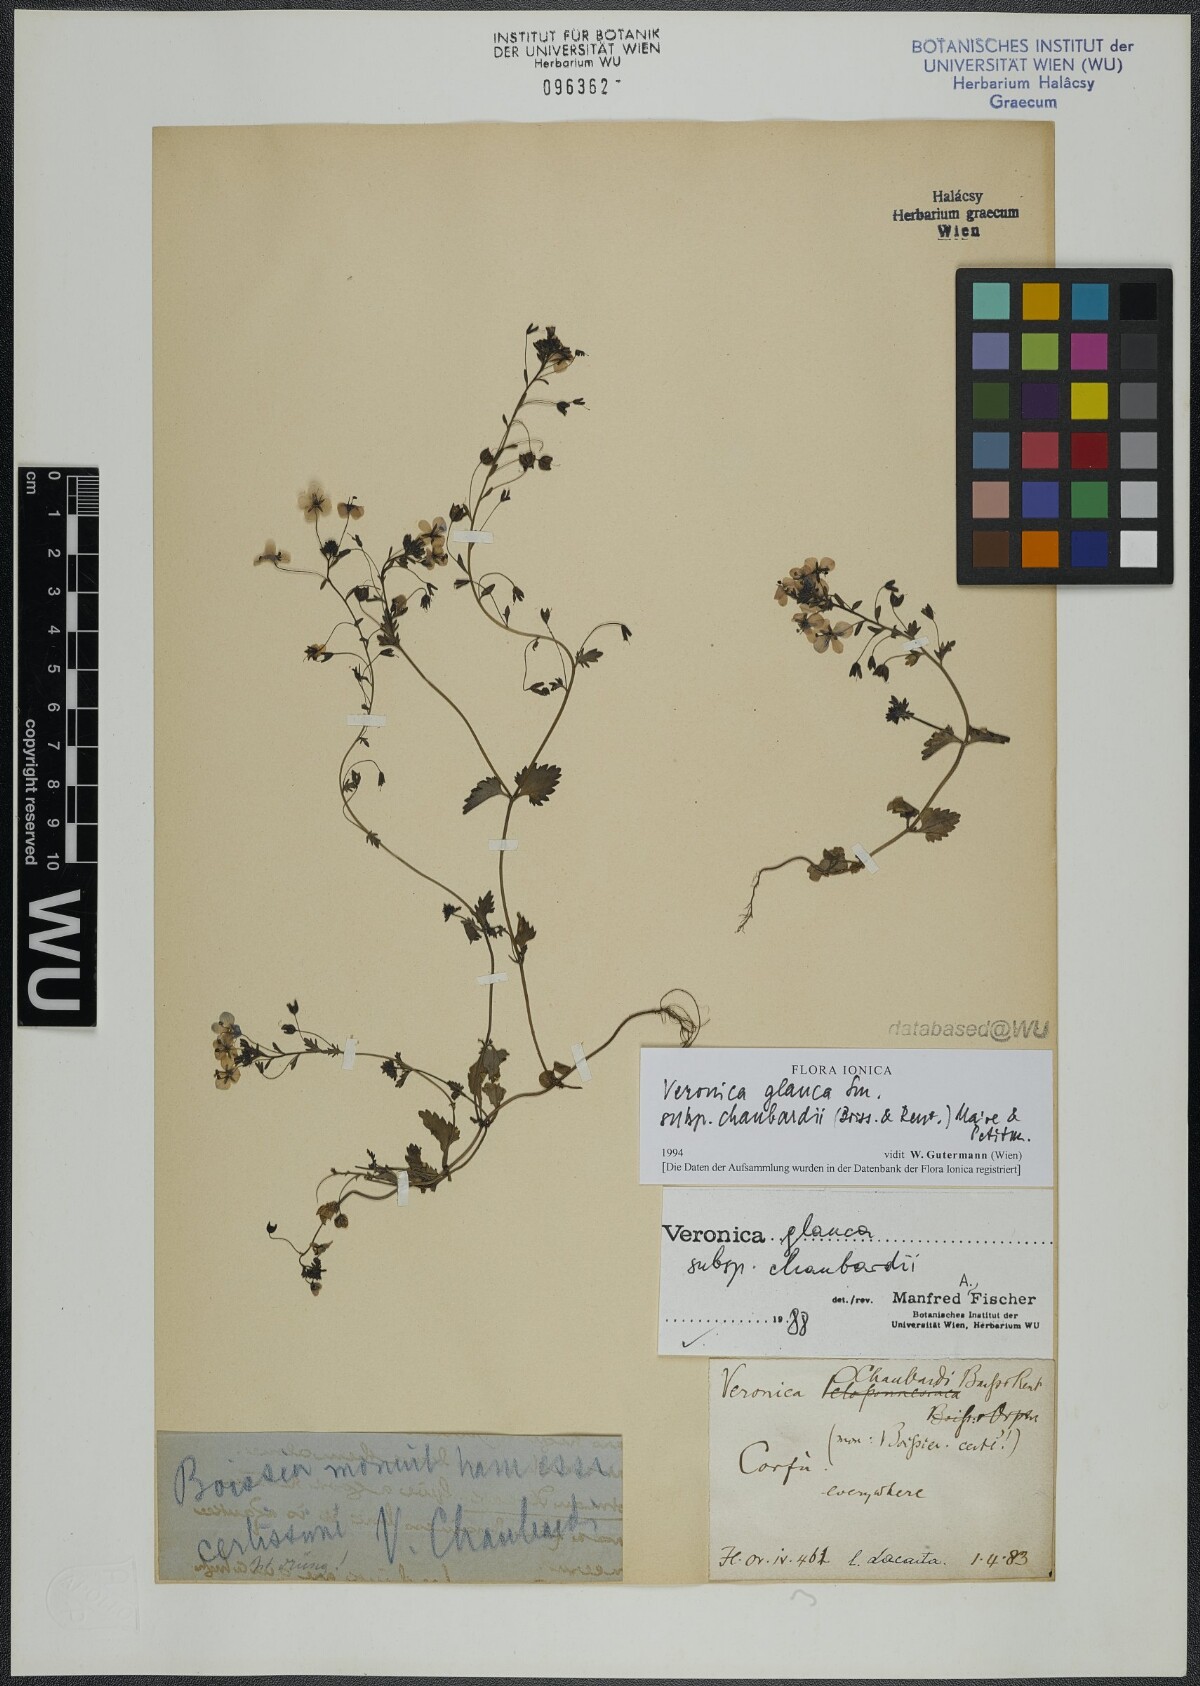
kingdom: Plantae
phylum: Tracheophyta
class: Magnoliopsida
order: Lamiales
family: Plantaginaceae
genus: Veronica
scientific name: Veronica glauca
